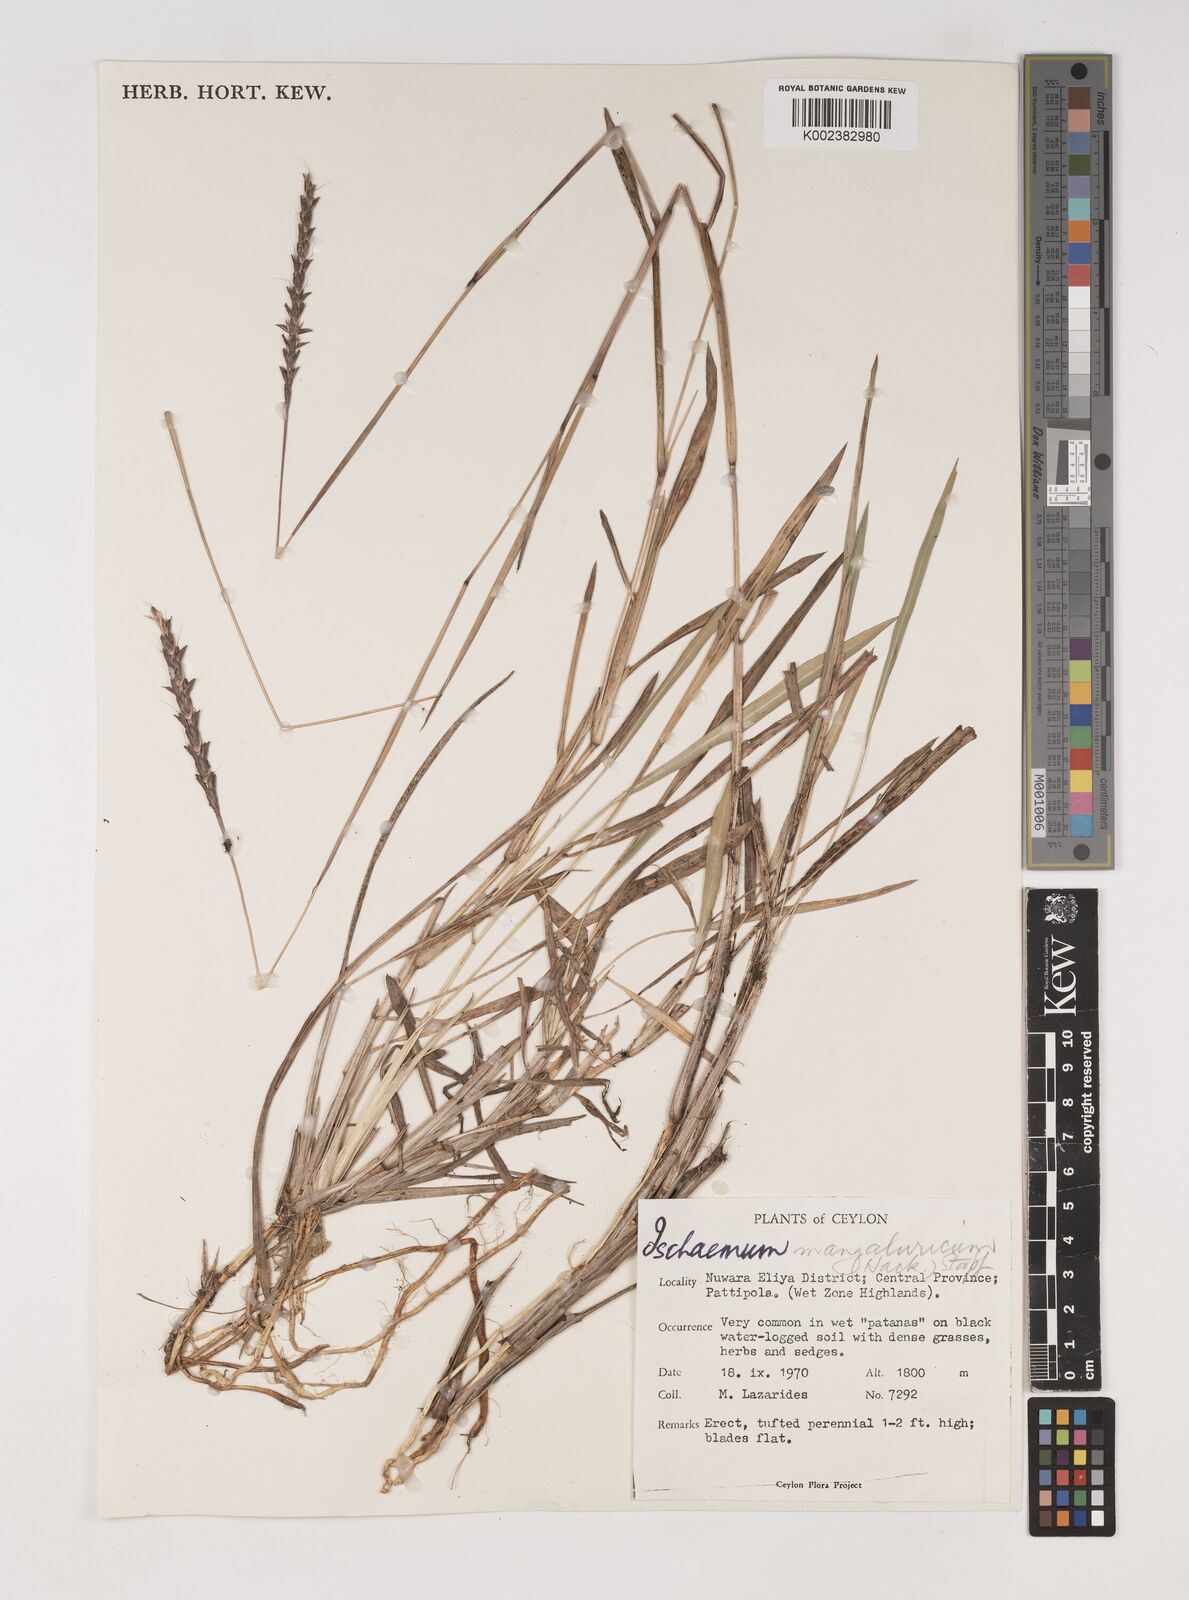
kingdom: Plantae
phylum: Tracheophyta
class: Liliopsida
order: Poales
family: Poaceae
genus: Ischaemum
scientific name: Ischaemum barbatum
